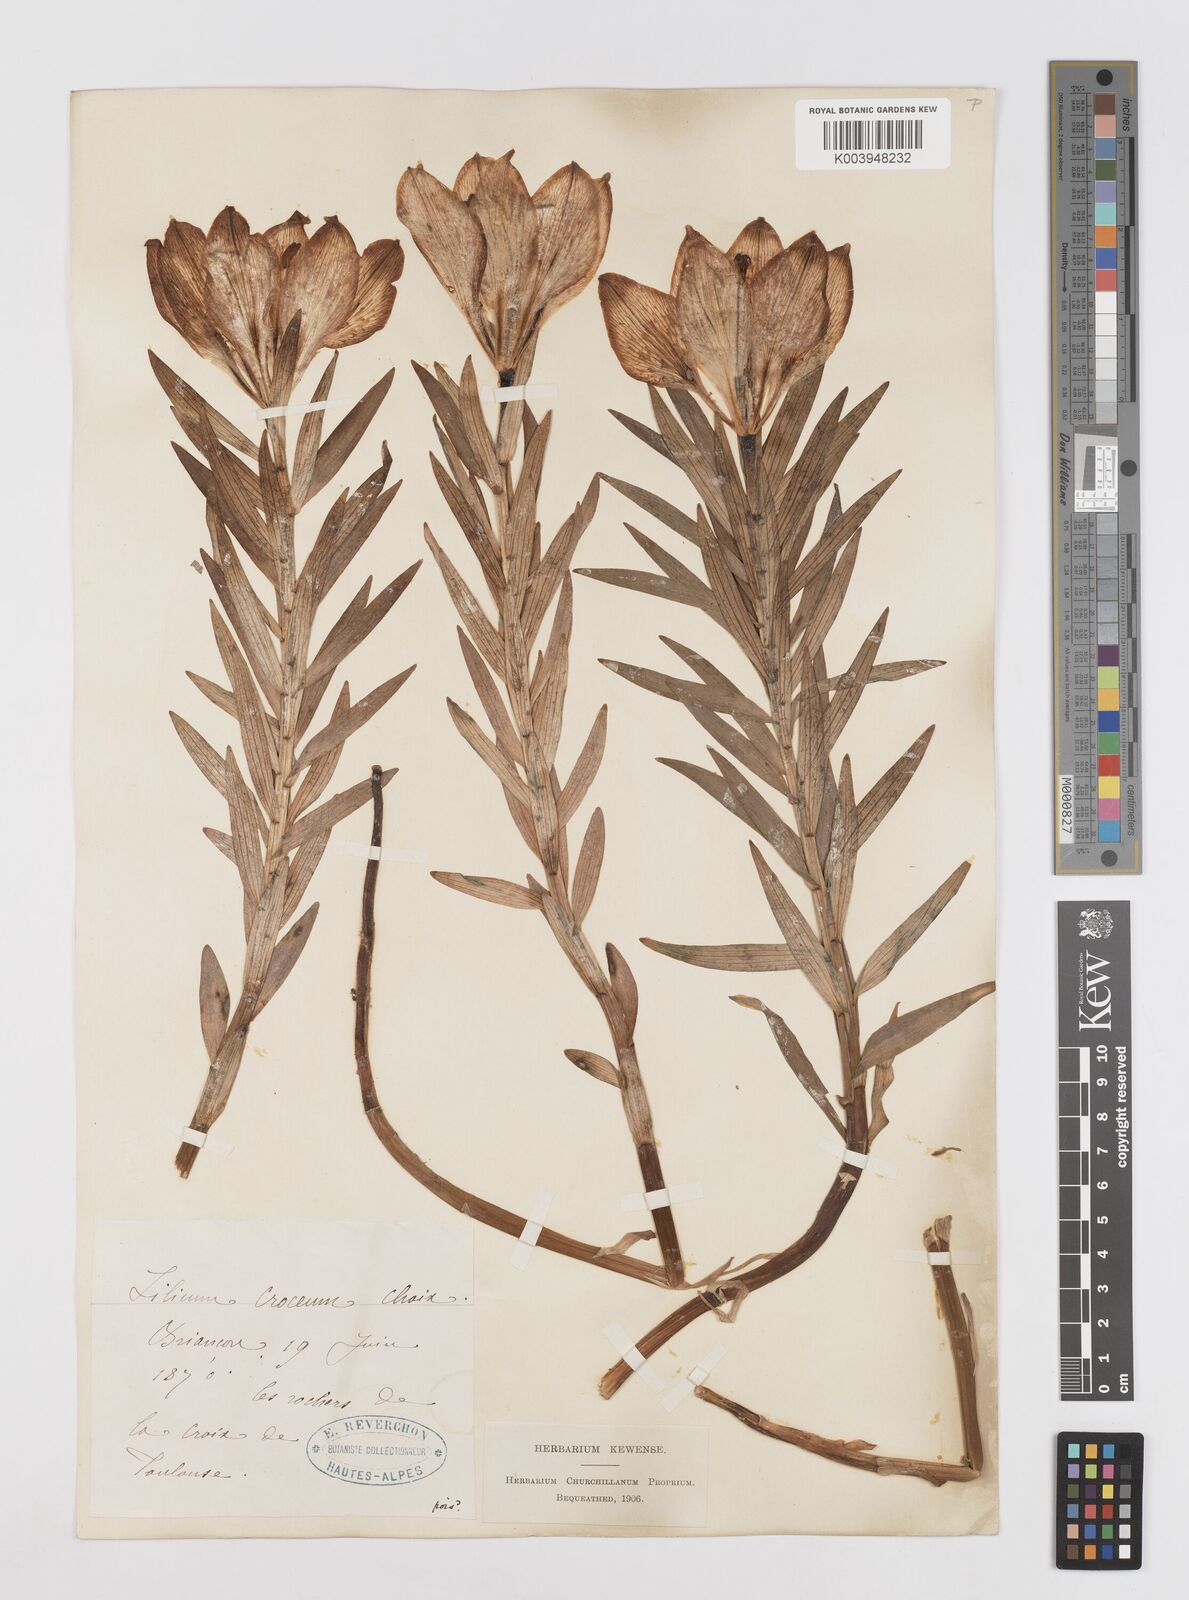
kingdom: Plantae
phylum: Tracheophyta
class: Liliopsida
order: Liliales
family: Liliaceae
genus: Lilium
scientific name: Lilium bulbiferum
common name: Orange lily
